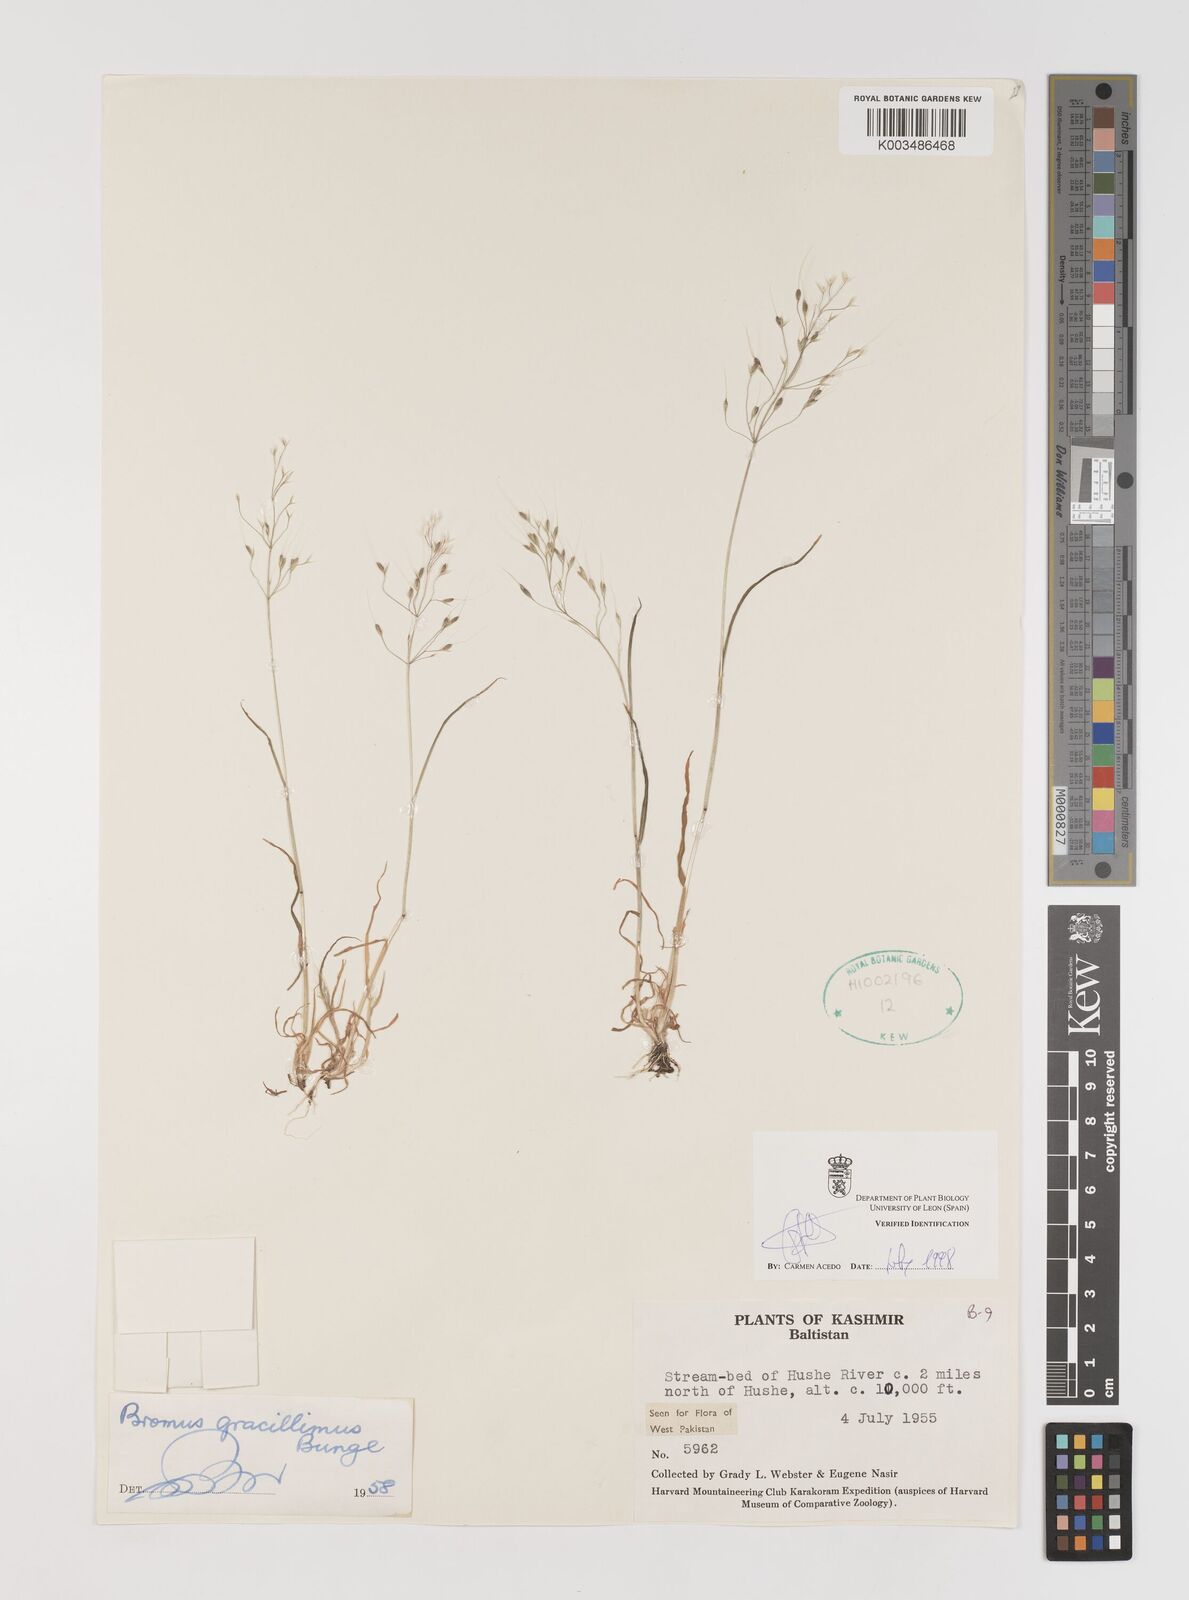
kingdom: Plantae
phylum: Tracheophyta
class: Liliopsida
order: Poales
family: Poaceae
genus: Bromus
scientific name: Bromus gracillimus
